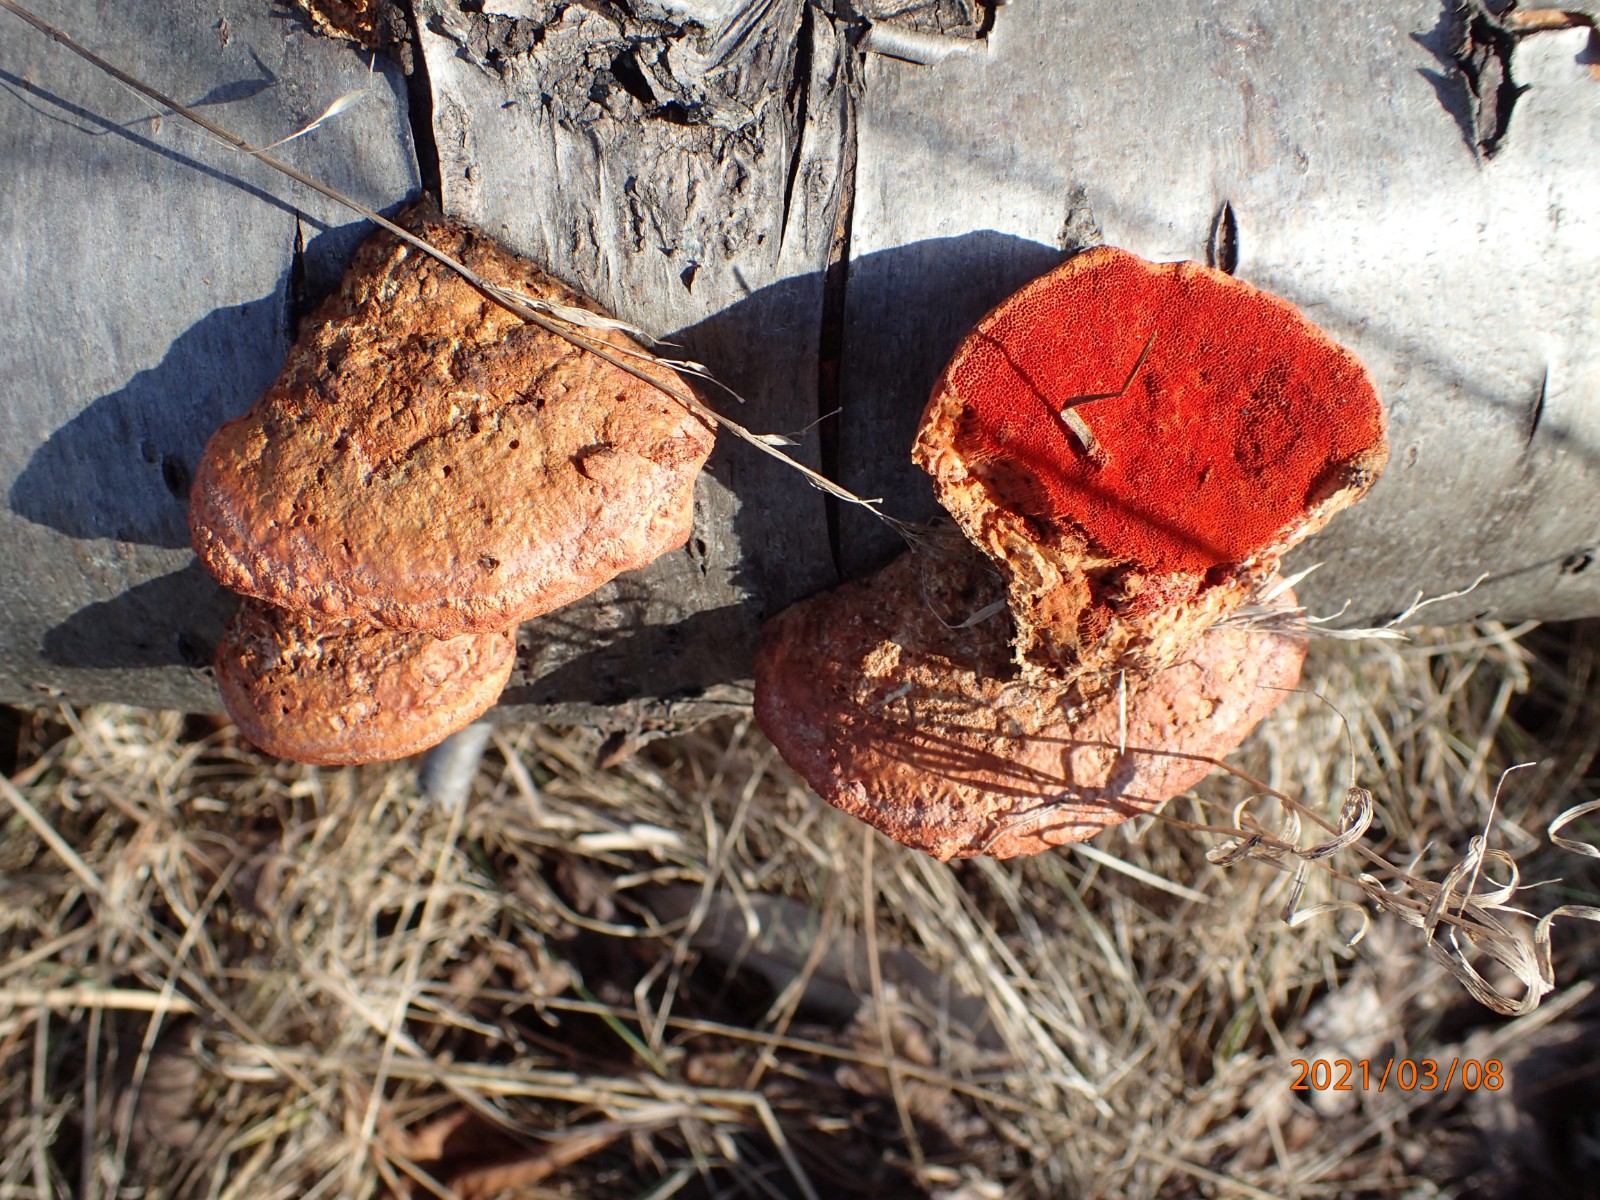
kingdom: Fungi
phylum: Basidiomycota
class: Agaricomycetes
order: Polyporales
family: Polyporaceae
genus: Trametes
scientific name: Trametes cinnabarina
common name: cinnoberporesvamp
